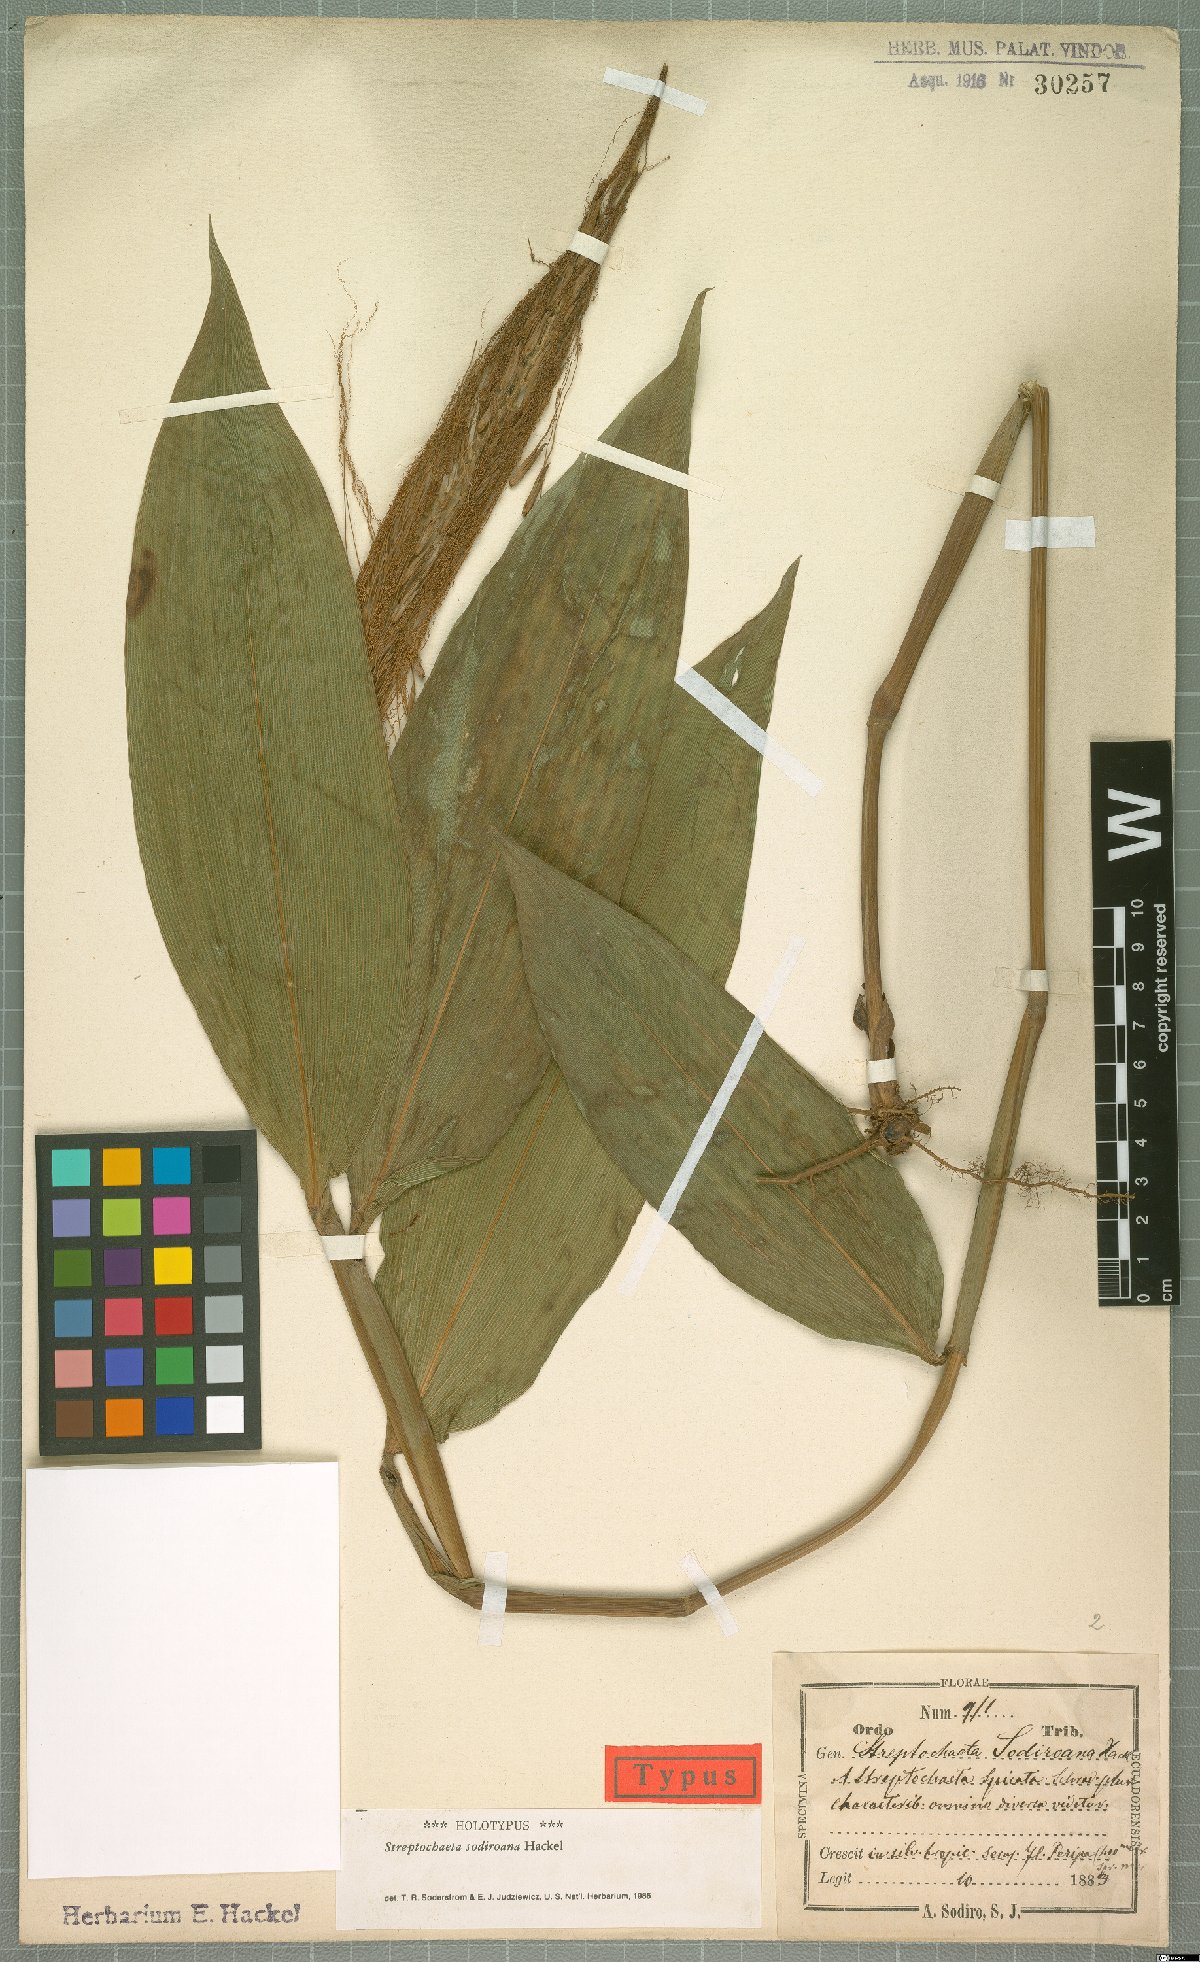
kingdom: Plantae
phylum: Tracheophyta
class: Liliopsida
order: Poales
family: Poaceae
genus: Streptochaeta
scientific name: Streptochaeta sodiroana
